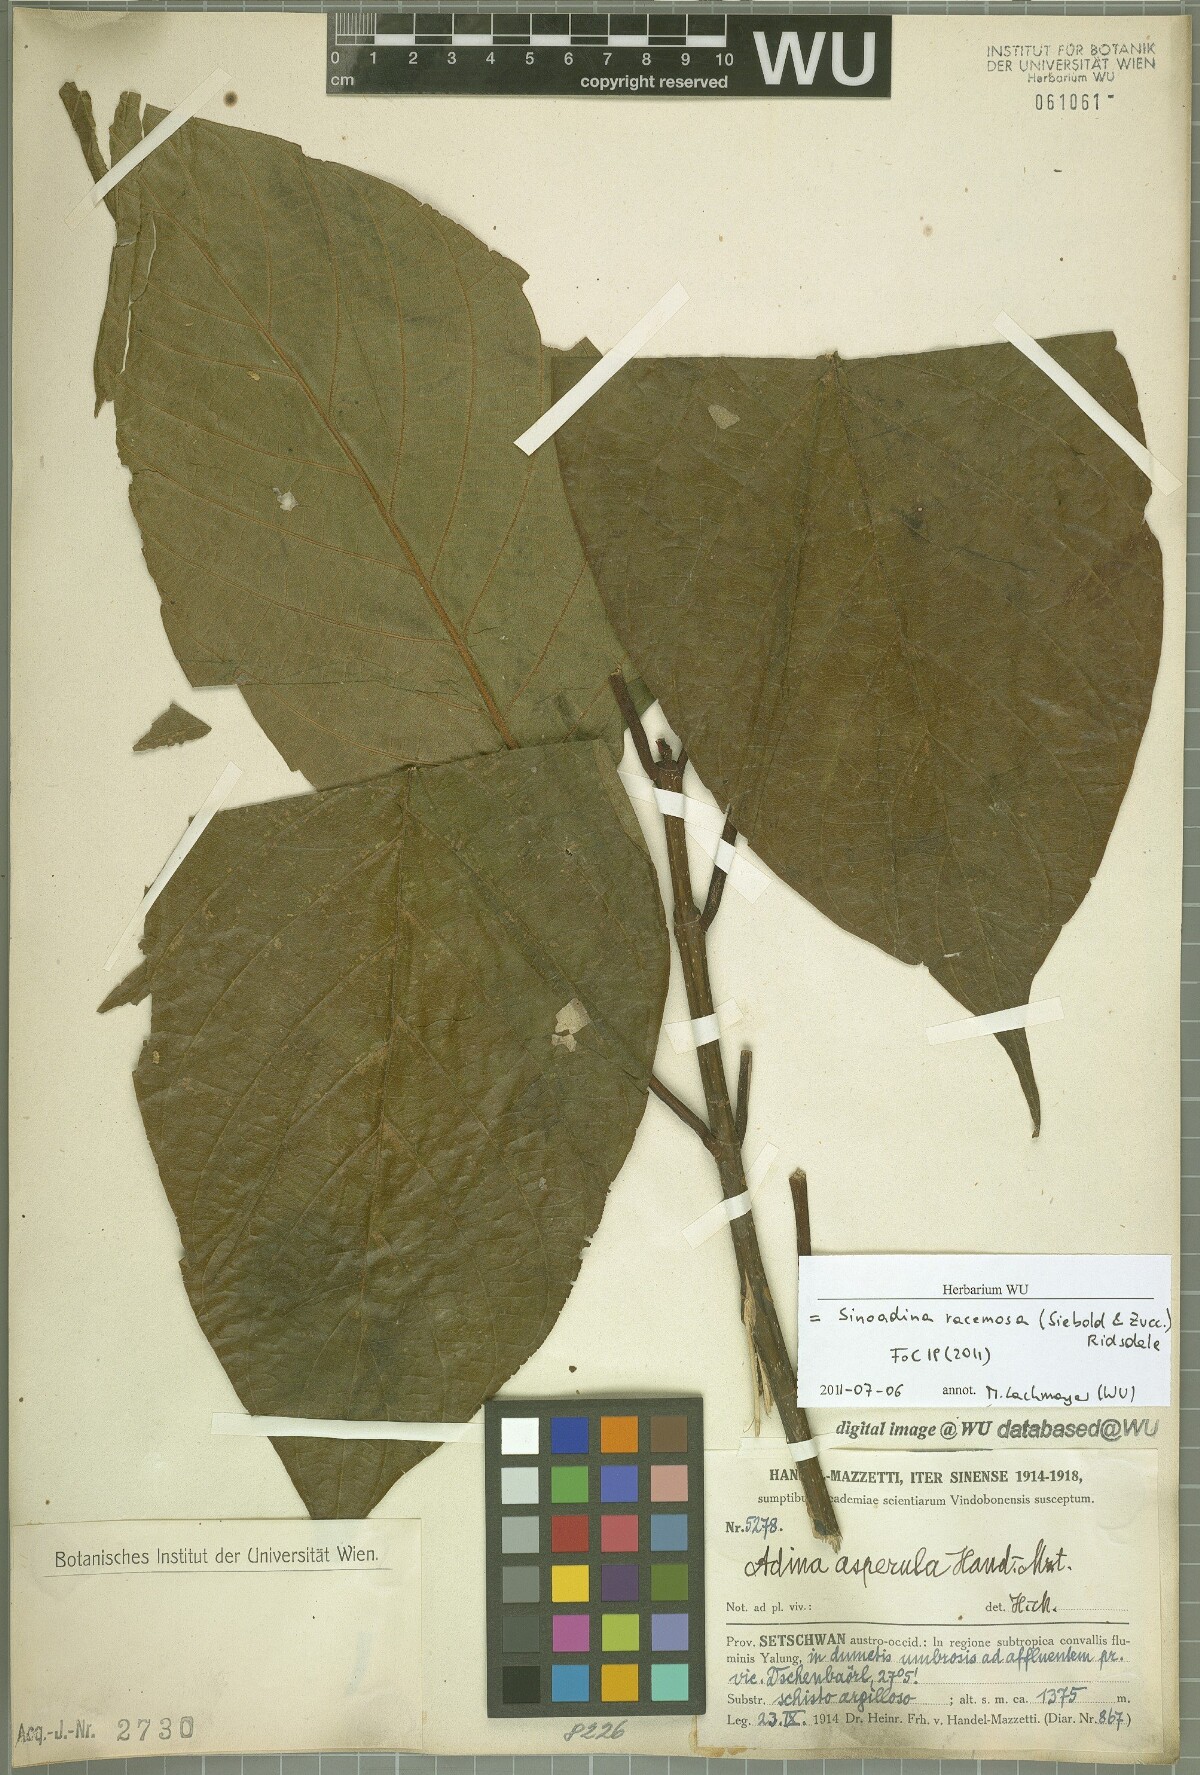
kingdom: Plantae
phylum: Tracheophyta
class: Magnoliopsida
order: Gentianales
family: Rubiaceae
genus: Adina
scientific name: Adina racemosa
